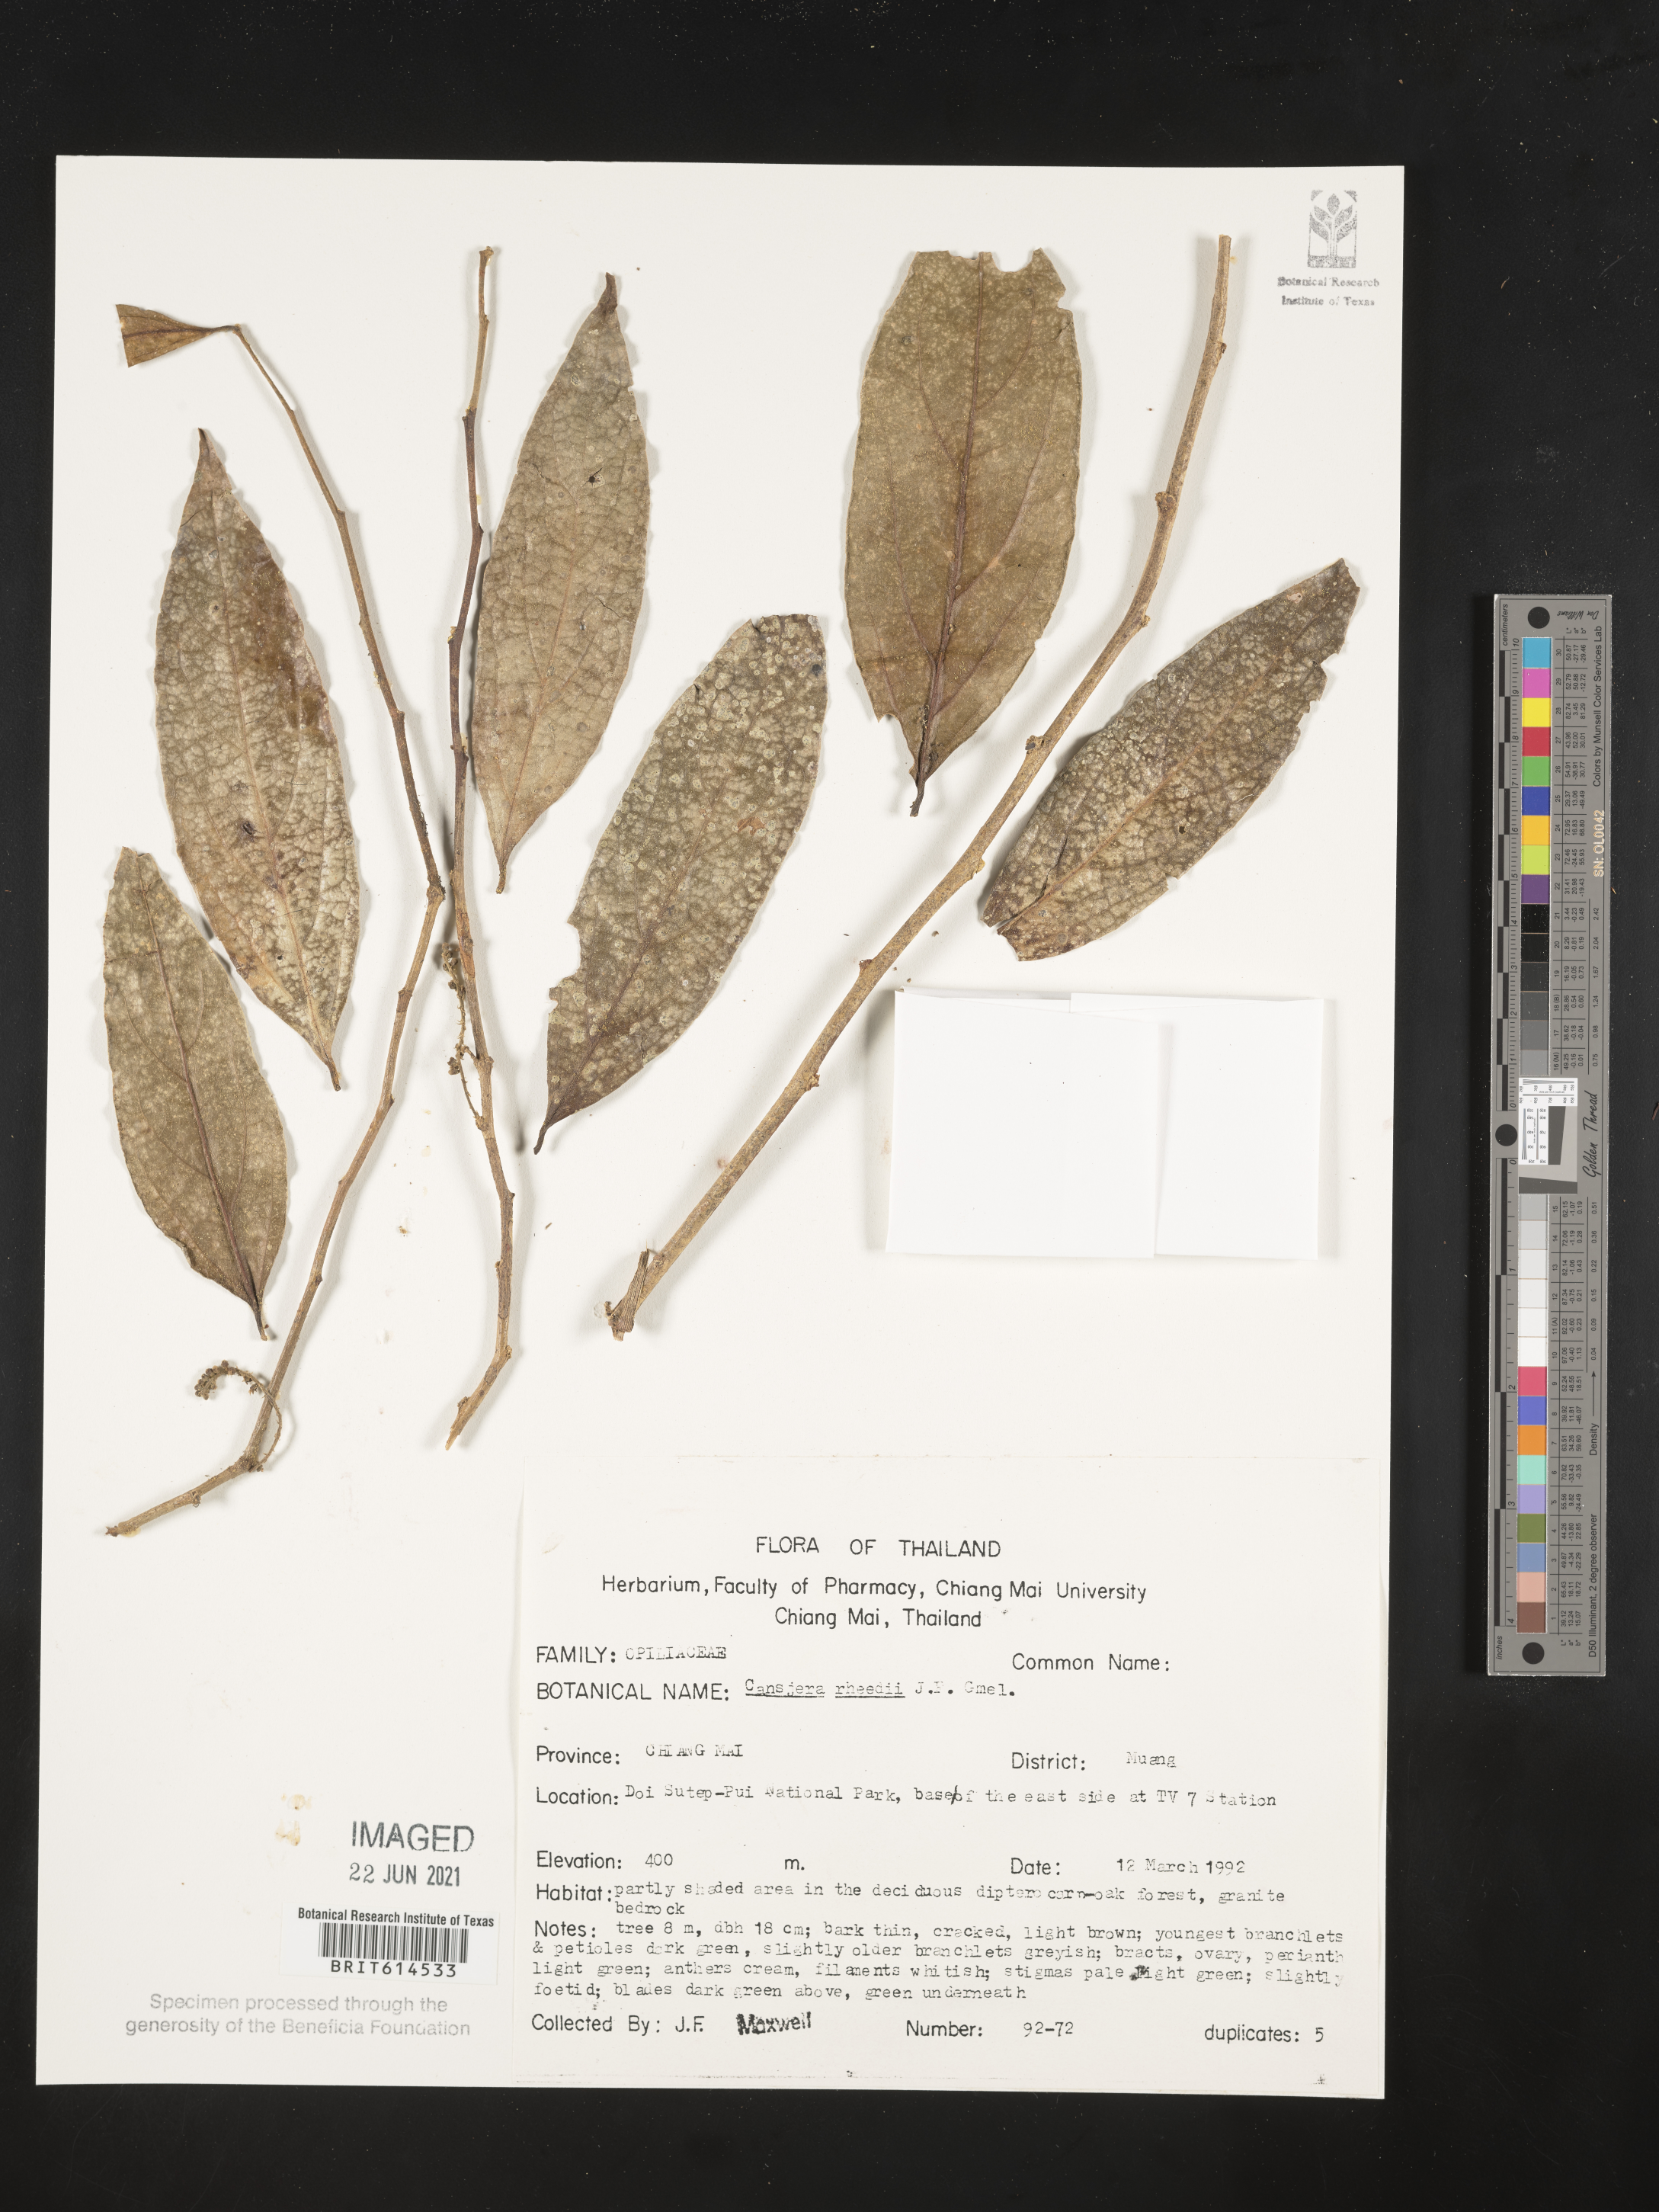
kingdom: Plantae
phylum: Tracheophyta
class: Magnoliopsida
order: Santalales
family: Opiliaceae
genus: Cansjera
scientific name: Cansjera rheedei
